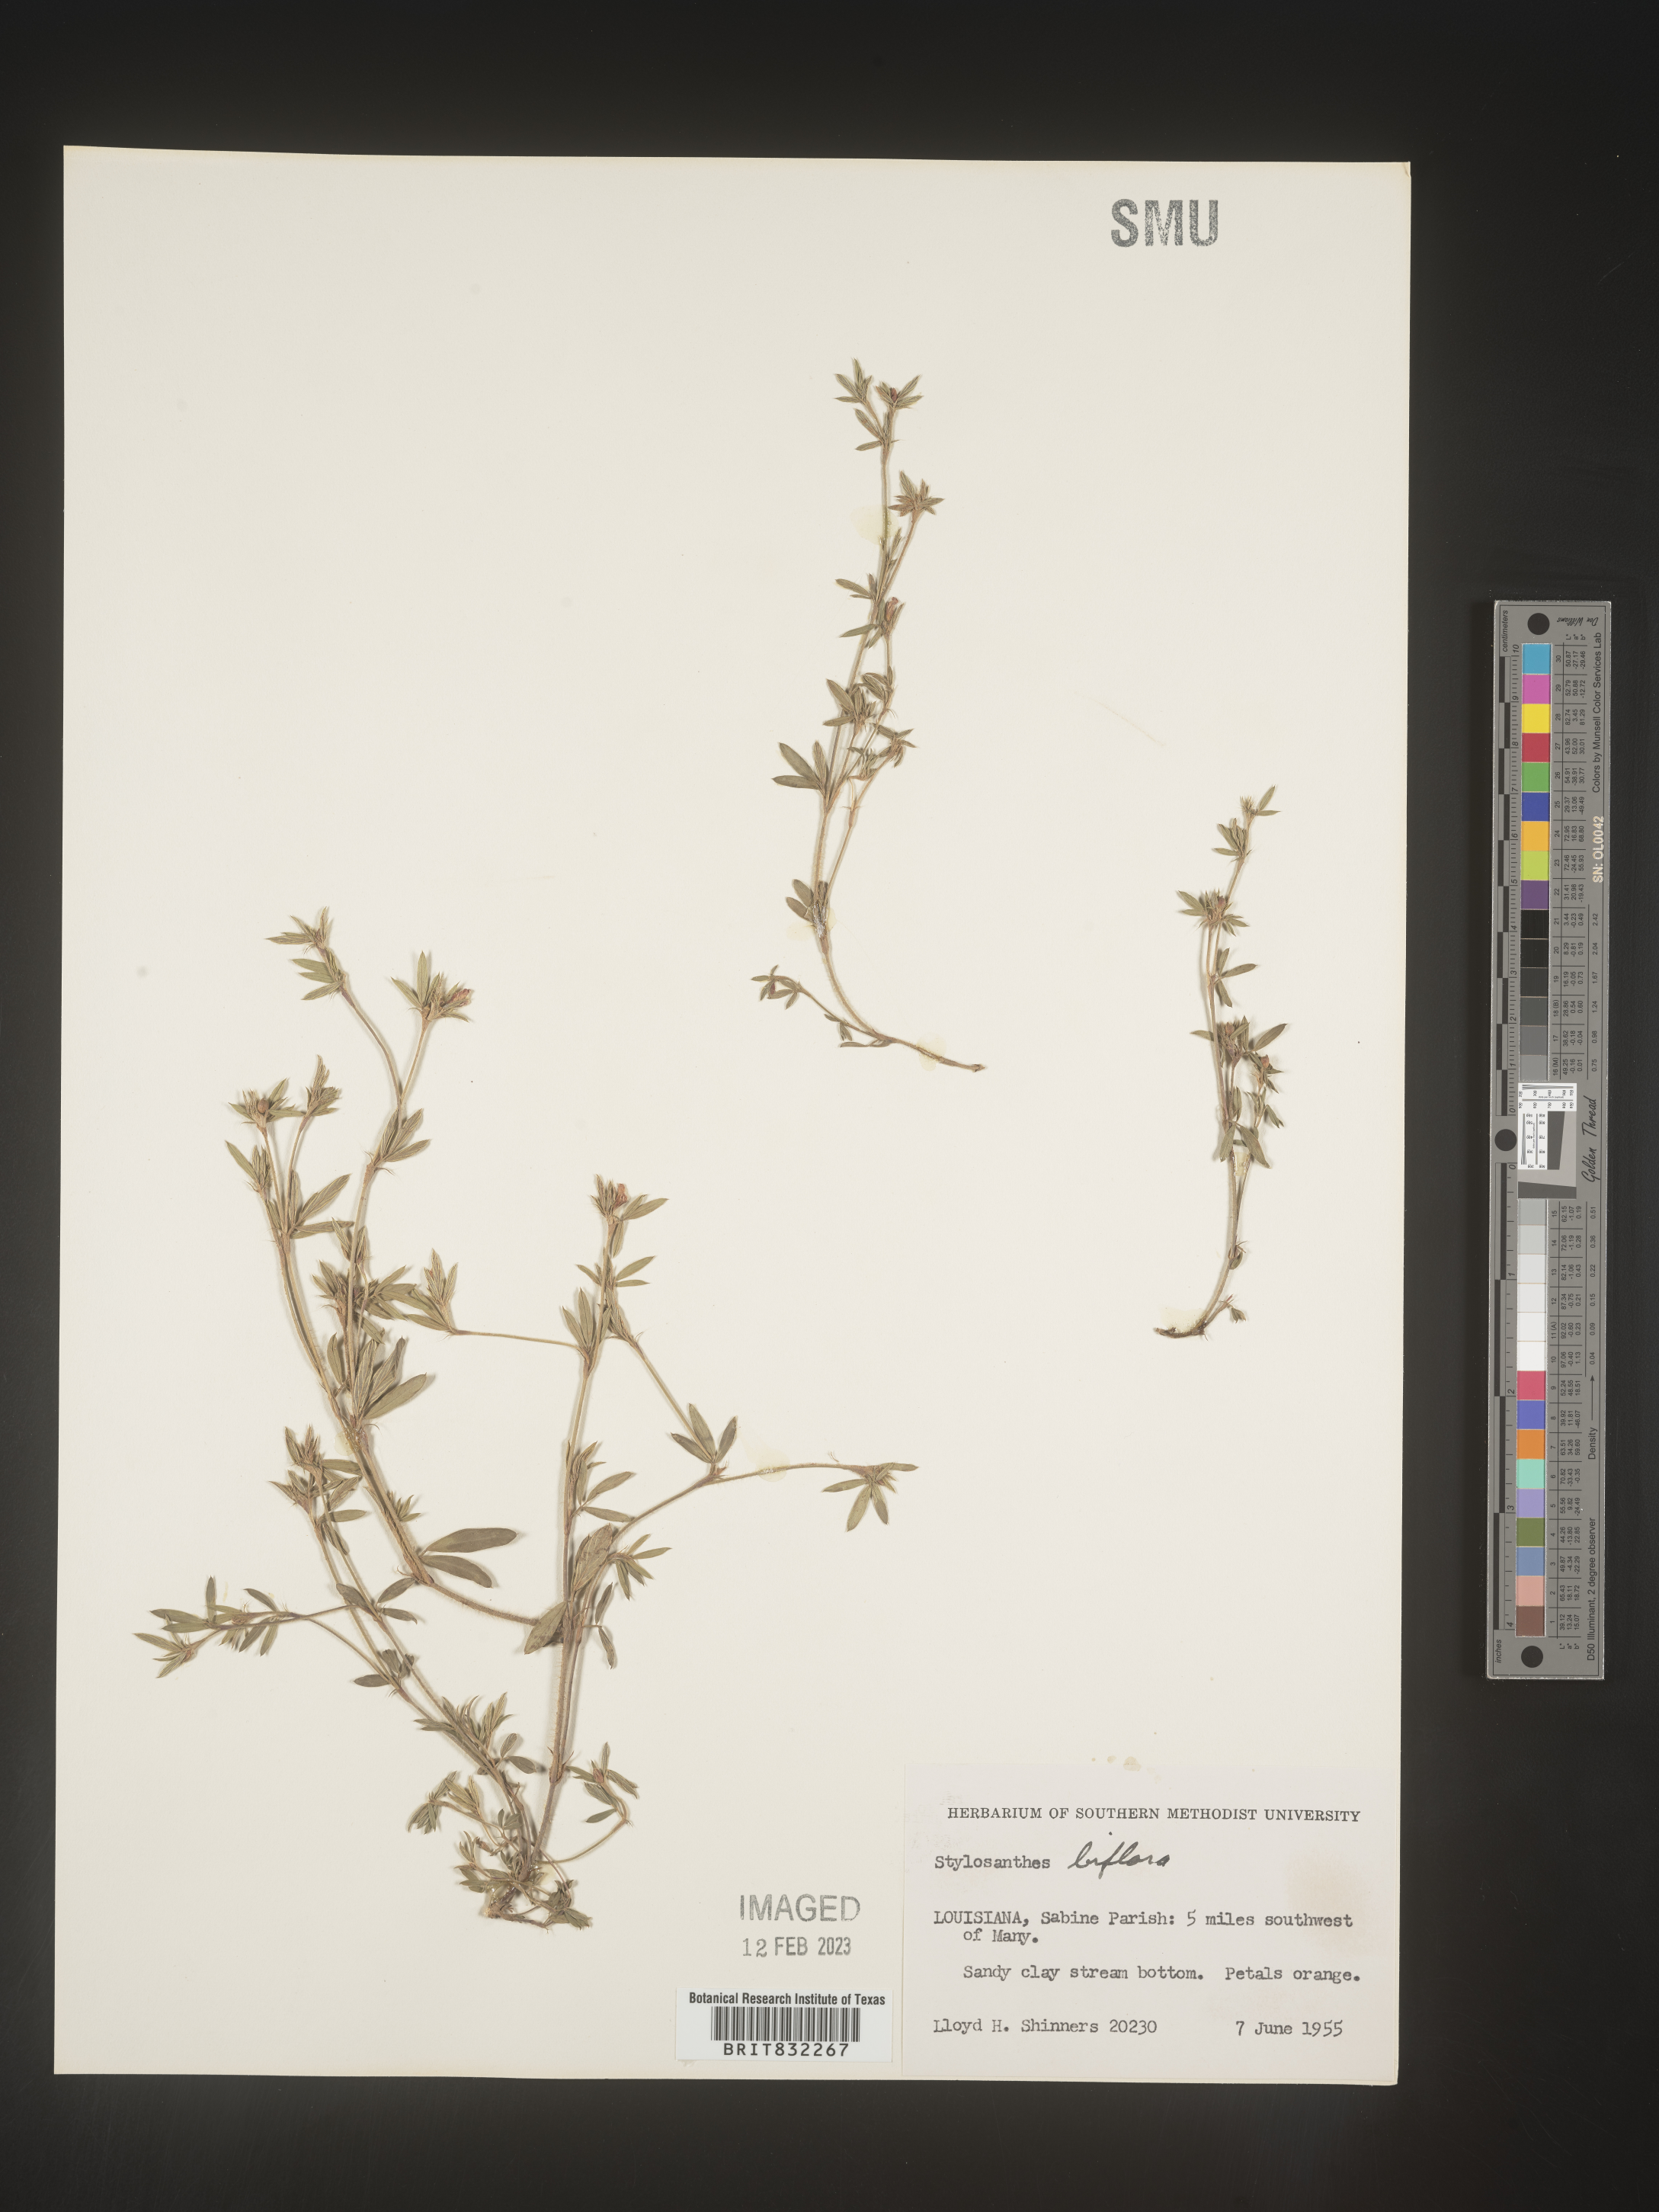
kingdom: Plantae
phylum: Tracheophyta
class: Magnoliopsida
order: Fabales
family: Fabaceae
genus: Stylosanthes
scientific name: Stylosanthes biflora
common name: Two-flower pencil-flower
